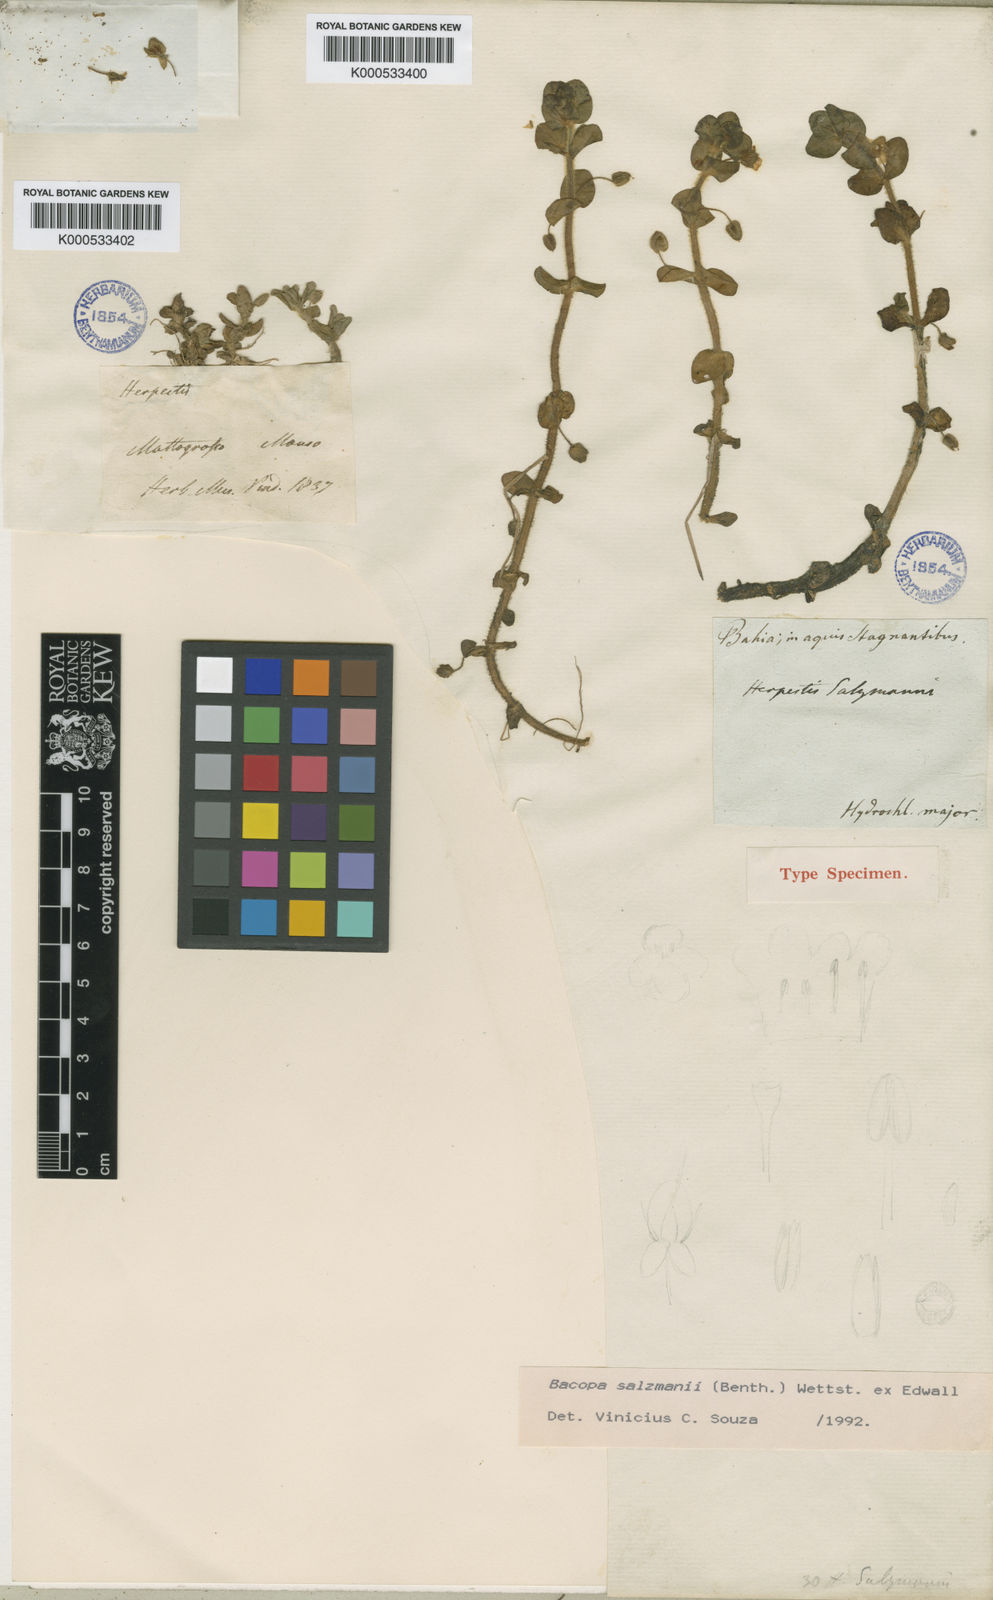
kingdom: Plantae
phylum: Tracheophyta
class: Magnoliopsida
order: Lamiales
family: Plantaginaceae
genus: Bacopa
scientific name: Bacopa salzmannii
